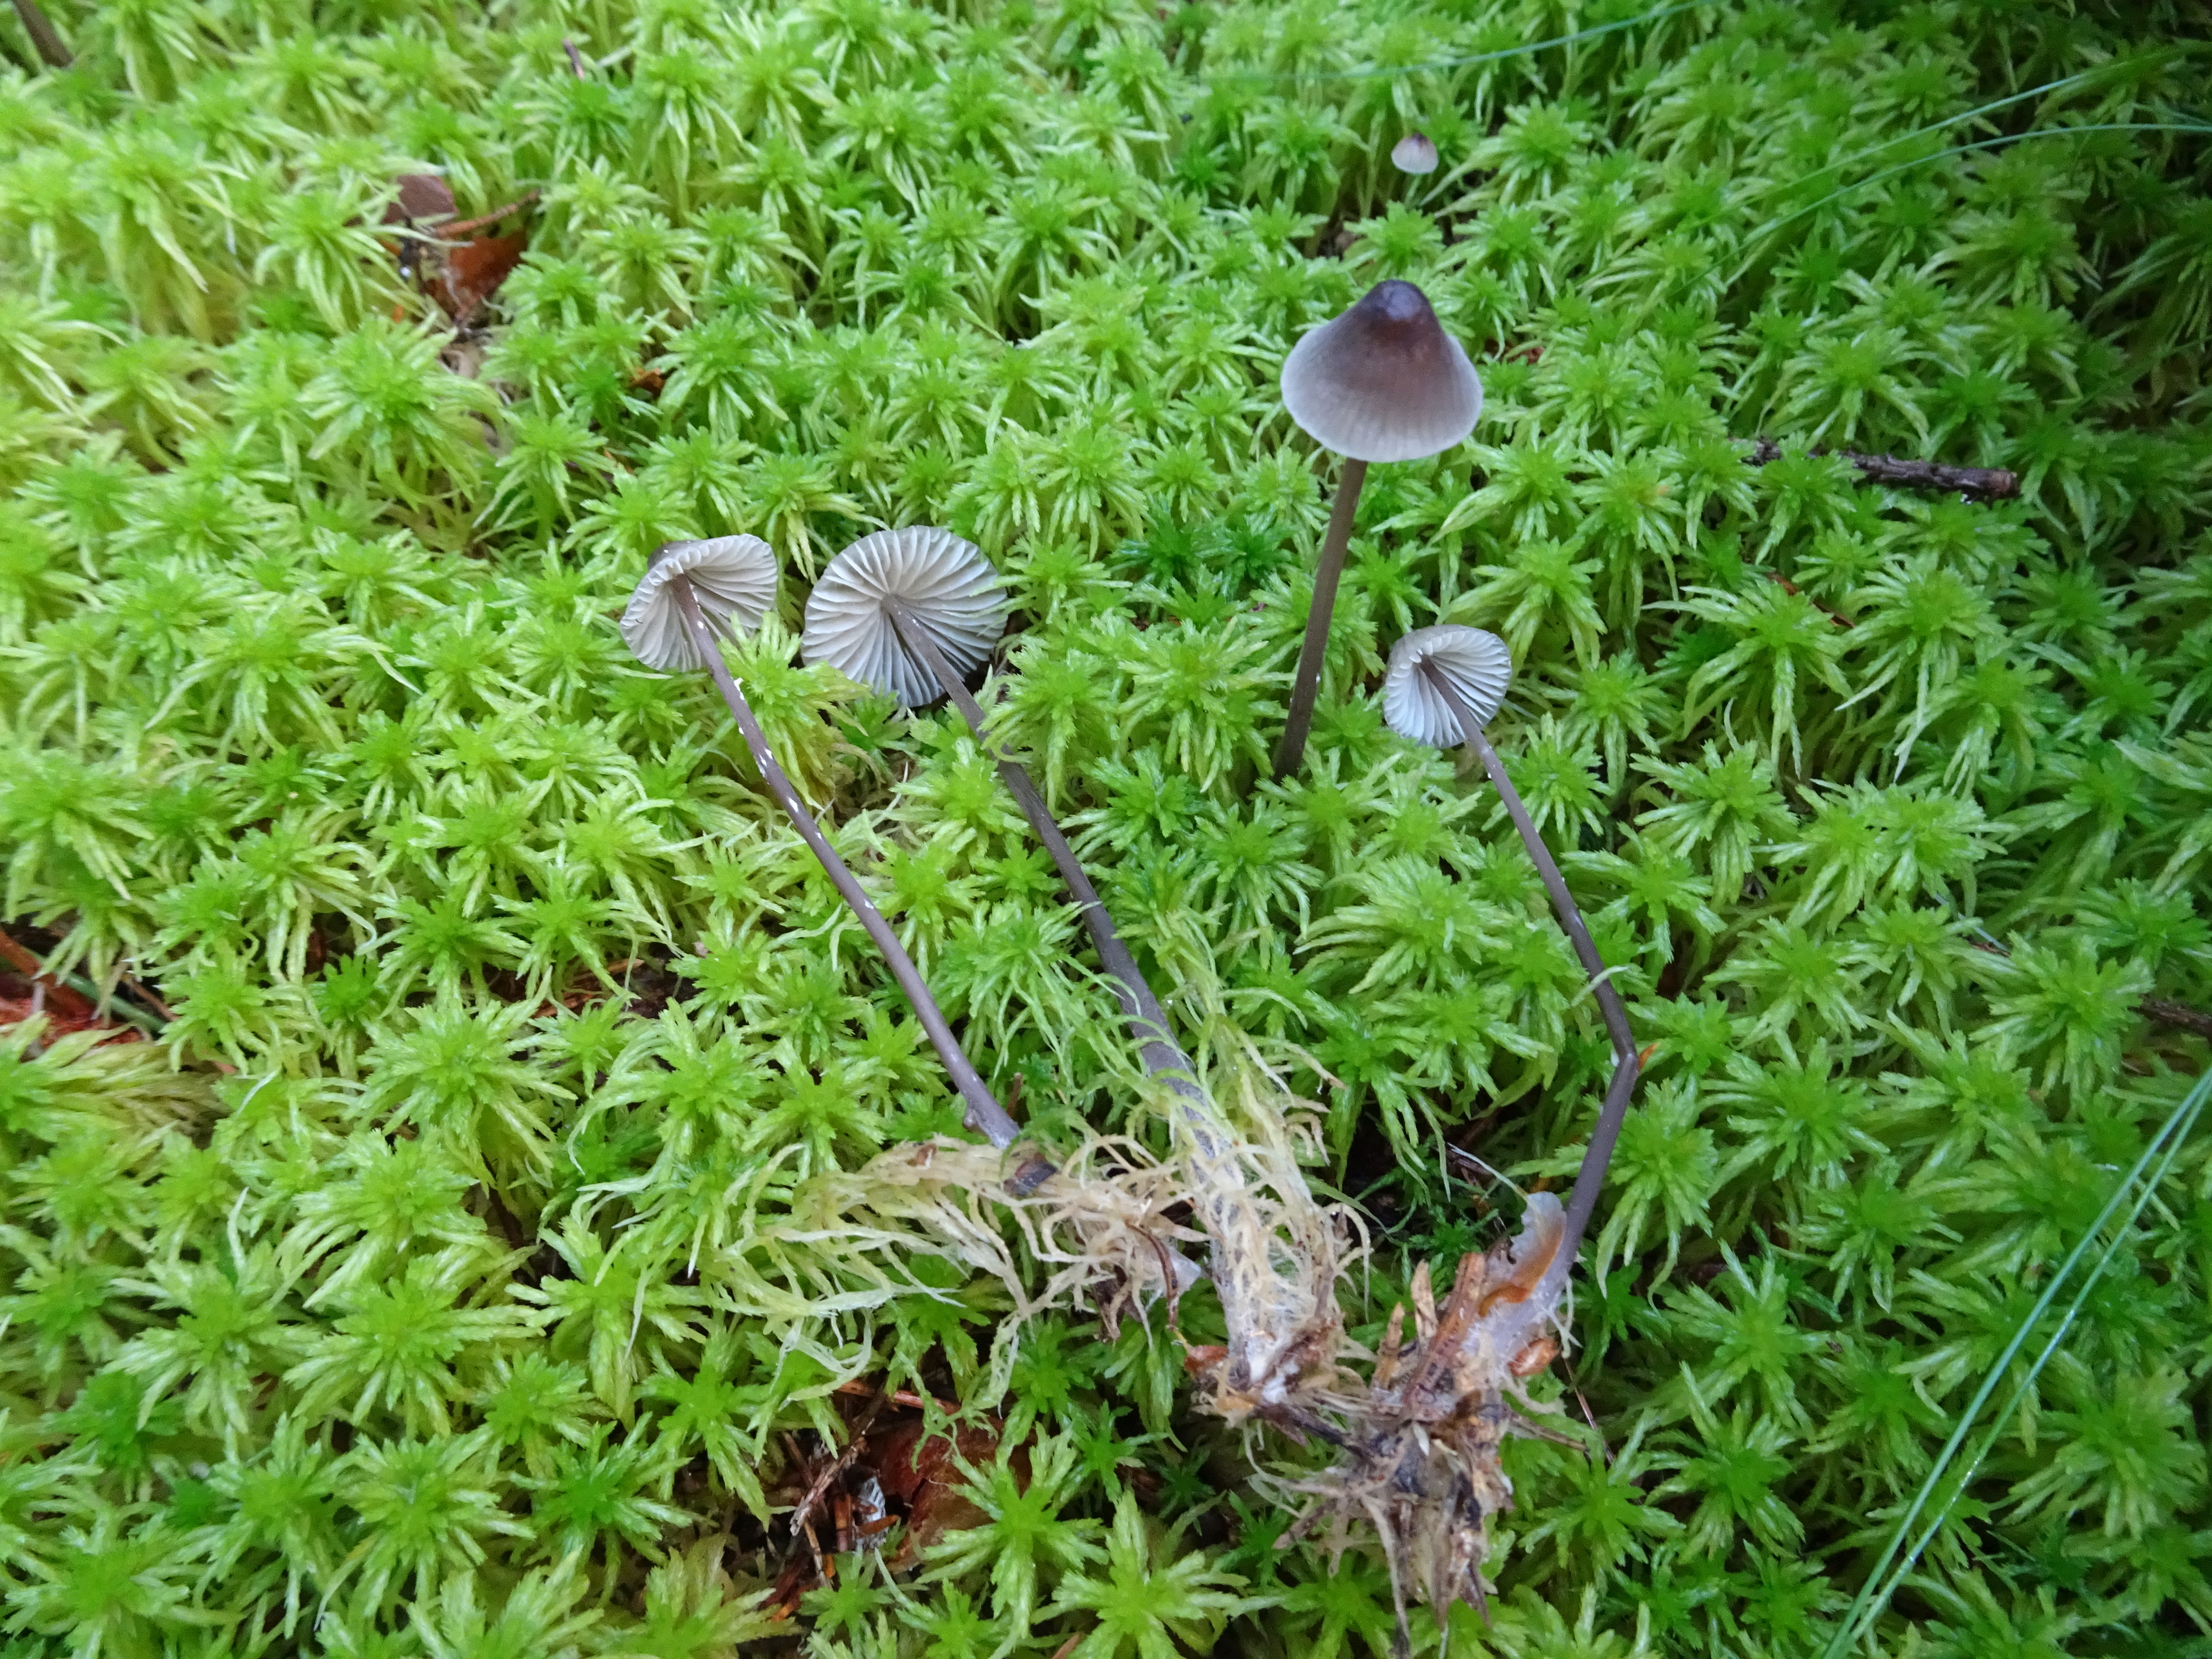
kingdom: Fungi
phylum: Basidiomycota
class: Agaricomycetes
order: Agaricales
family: Mycenaceae
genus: Mycena
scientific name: Mycena galopus
